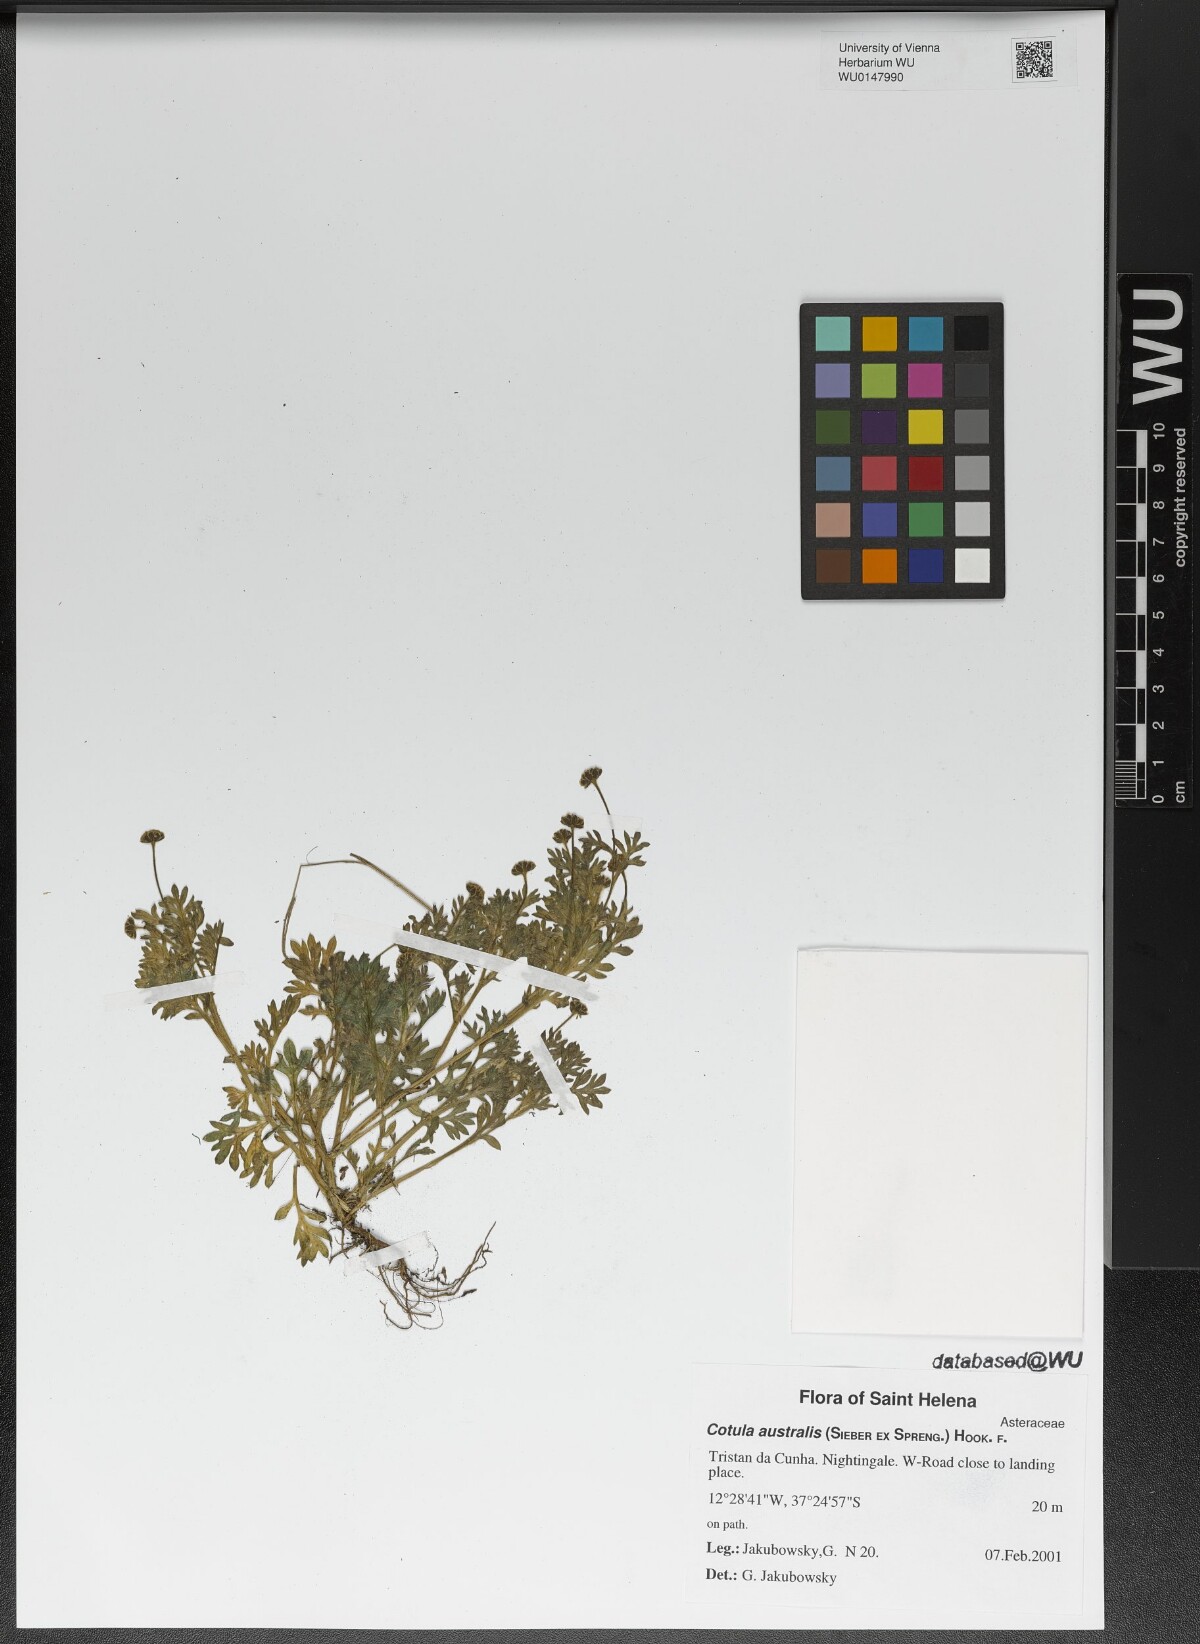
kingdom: Plantae
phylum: Tracheophyta
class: Magnoliopsida
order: Asterales
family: Asteraceae
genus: Cotula
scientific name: Cotula australis
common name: Australian waterbuttons
